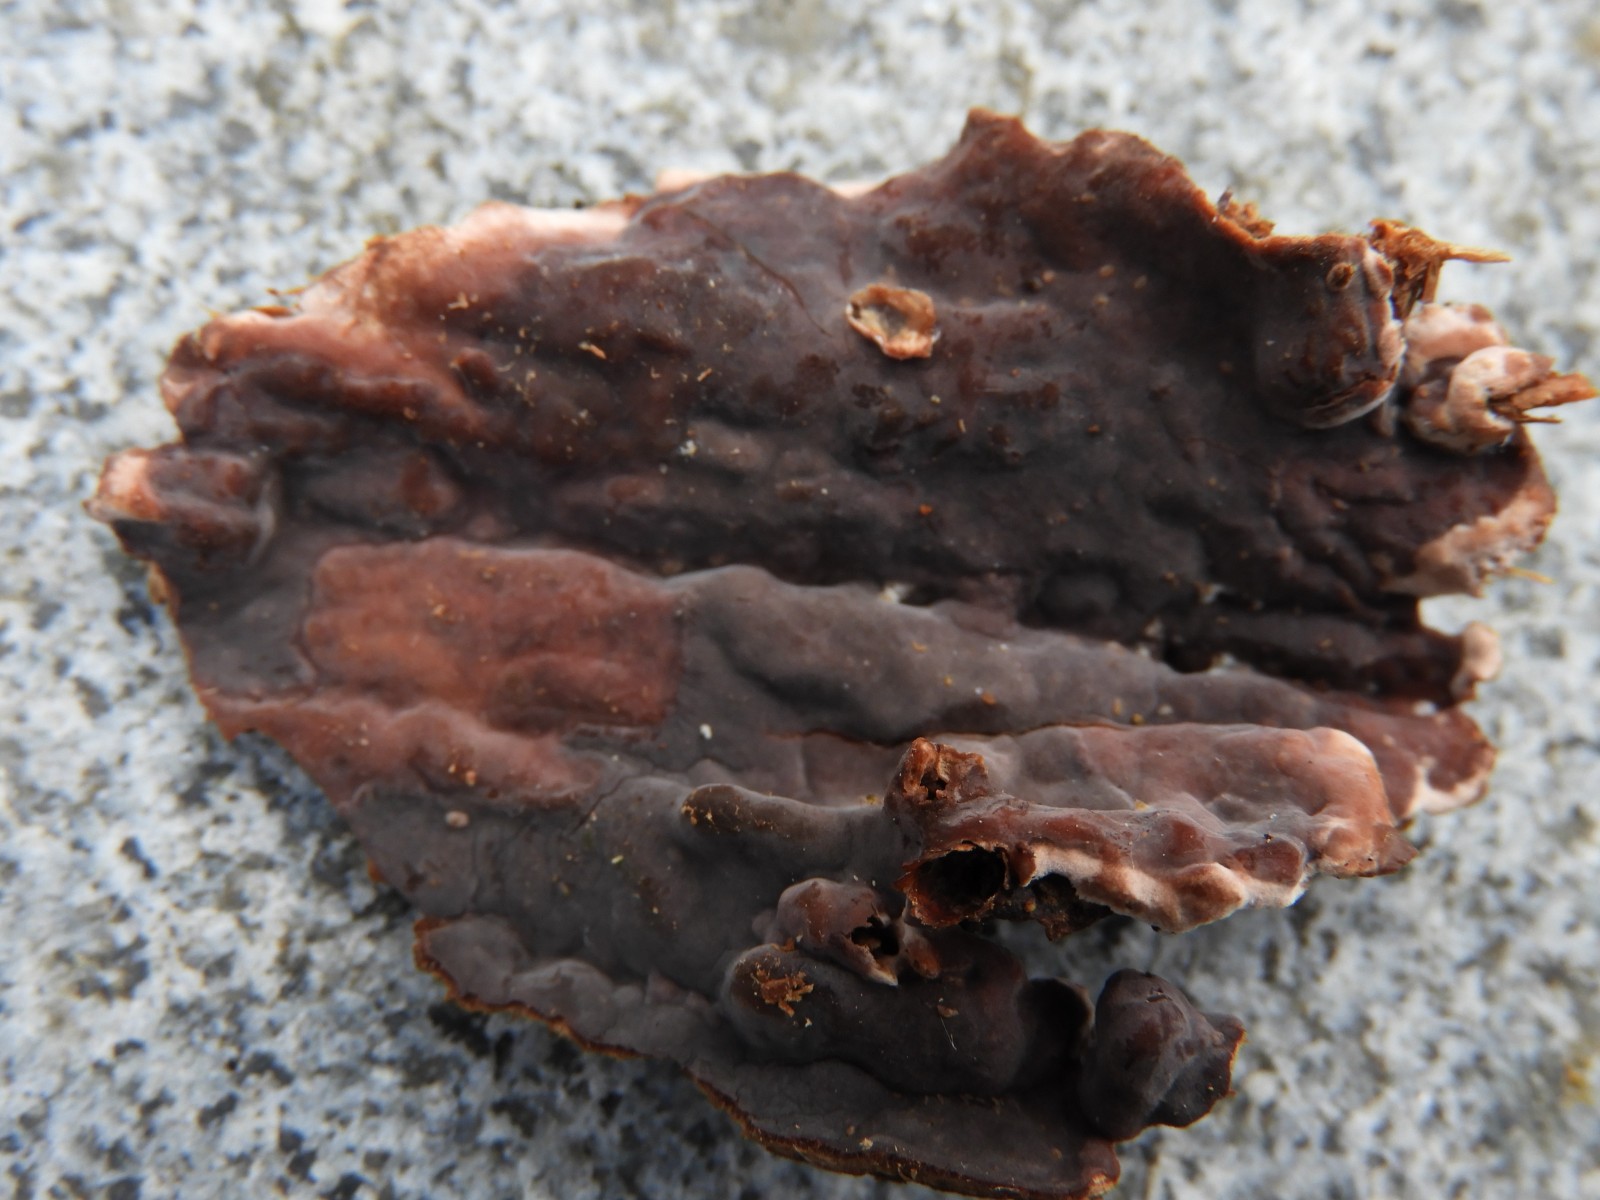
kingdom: Fungi
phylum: Basidiomycota
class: Agaricomycetes
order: Agaricales
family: Cyphellaceae
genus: Chondrostereum
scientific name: Chondrostereum purpureum
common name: purpurlædersvamp
